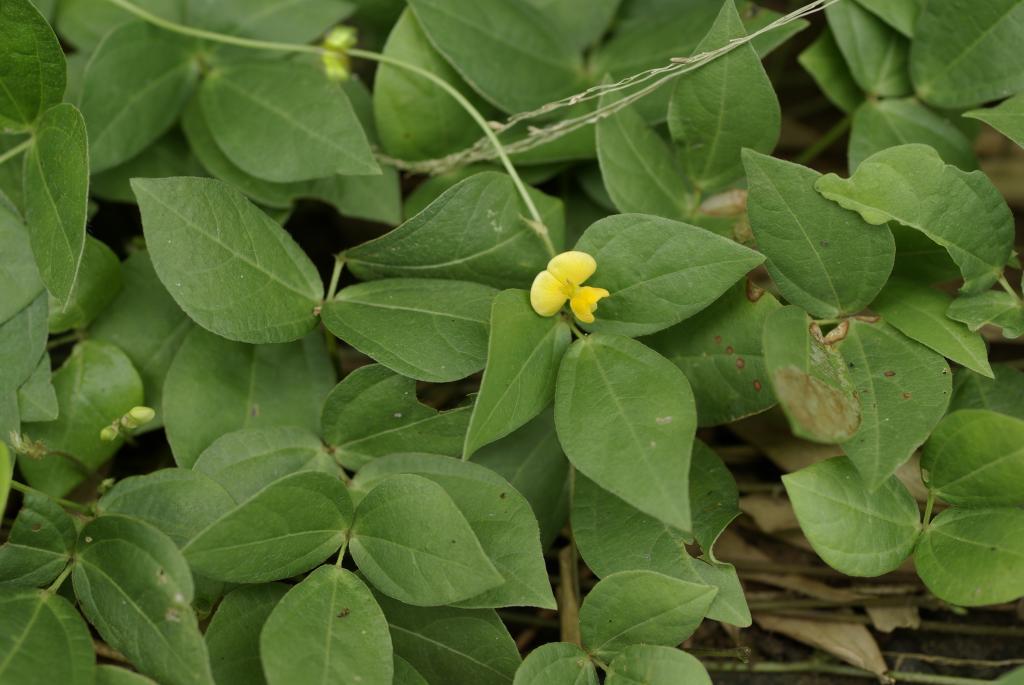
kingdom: Plantae
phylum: Tracheophyta
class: Magnoliopsida
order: Fabales
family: Fabaceae
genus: Vigna
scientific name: Vigna hosei
